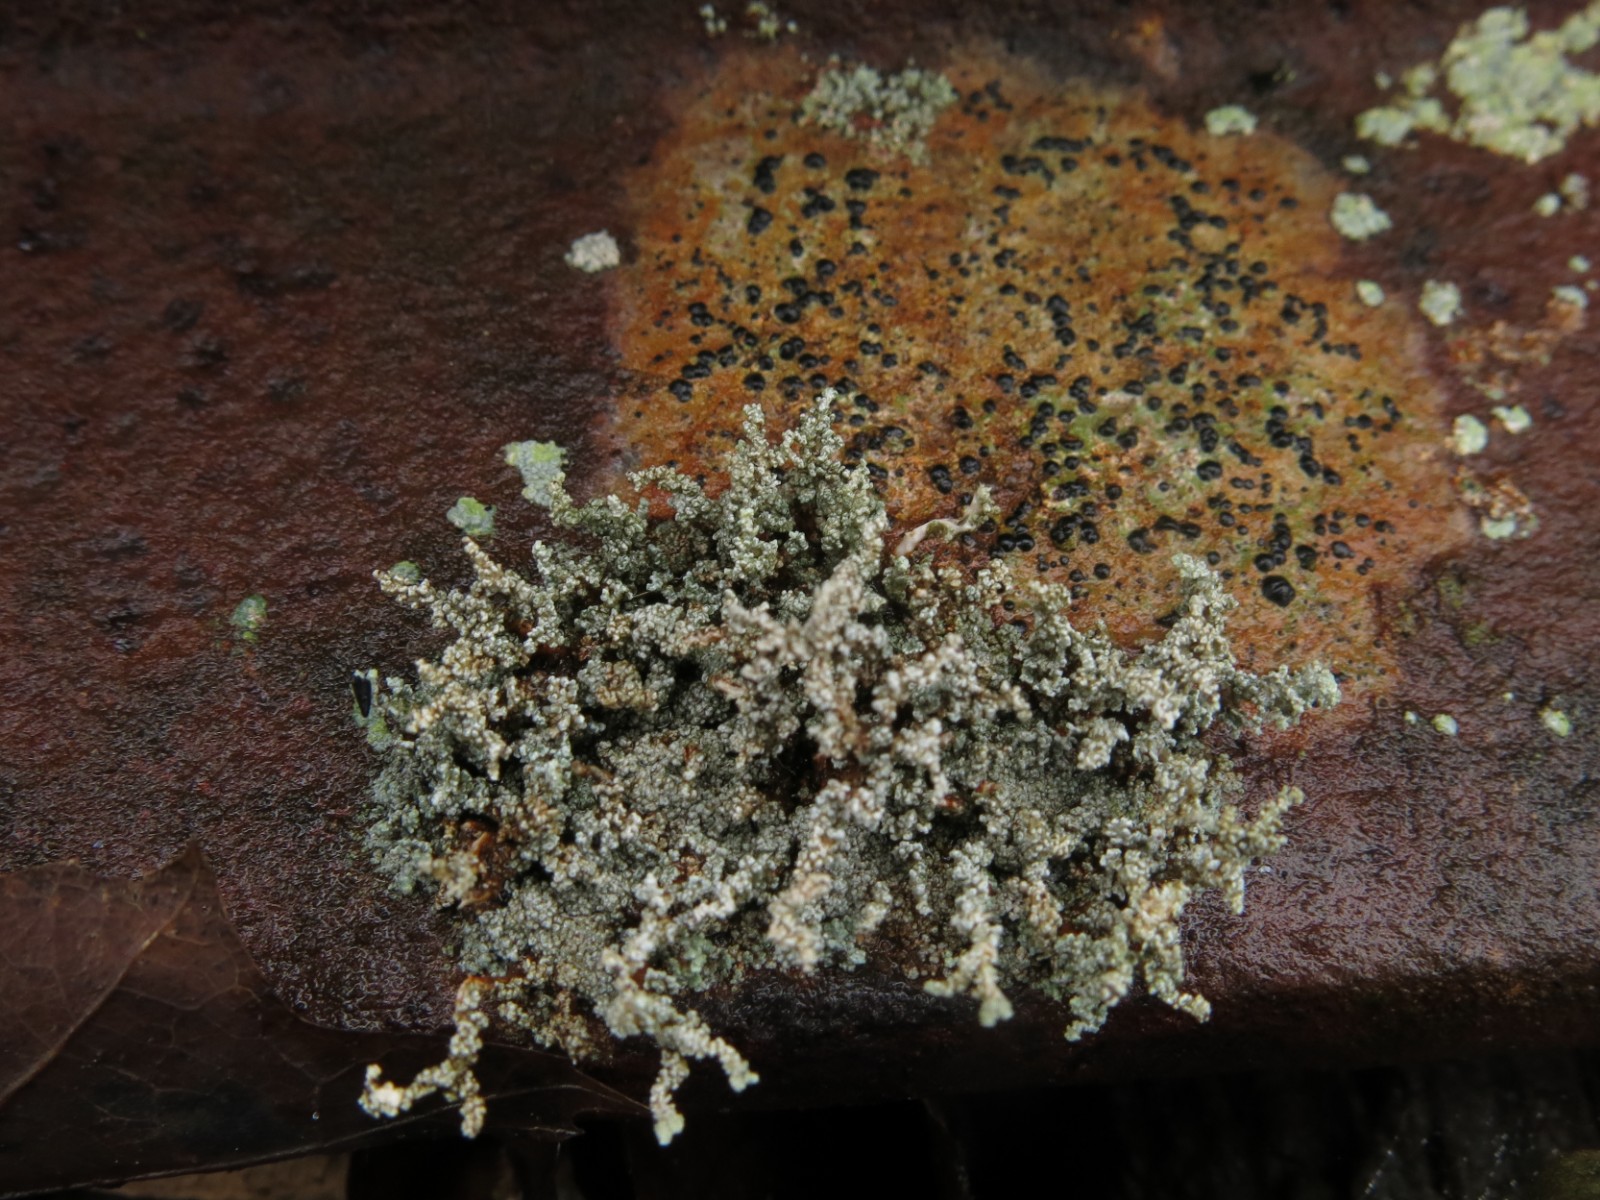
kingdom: Fungi
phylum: Ascomycota
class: Lecanoromycetes
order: Lecanorales
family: Stereocaulaceae
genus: Stereocaulon
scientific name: Stereocaulon vesuvianum
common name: skjold-korallav
